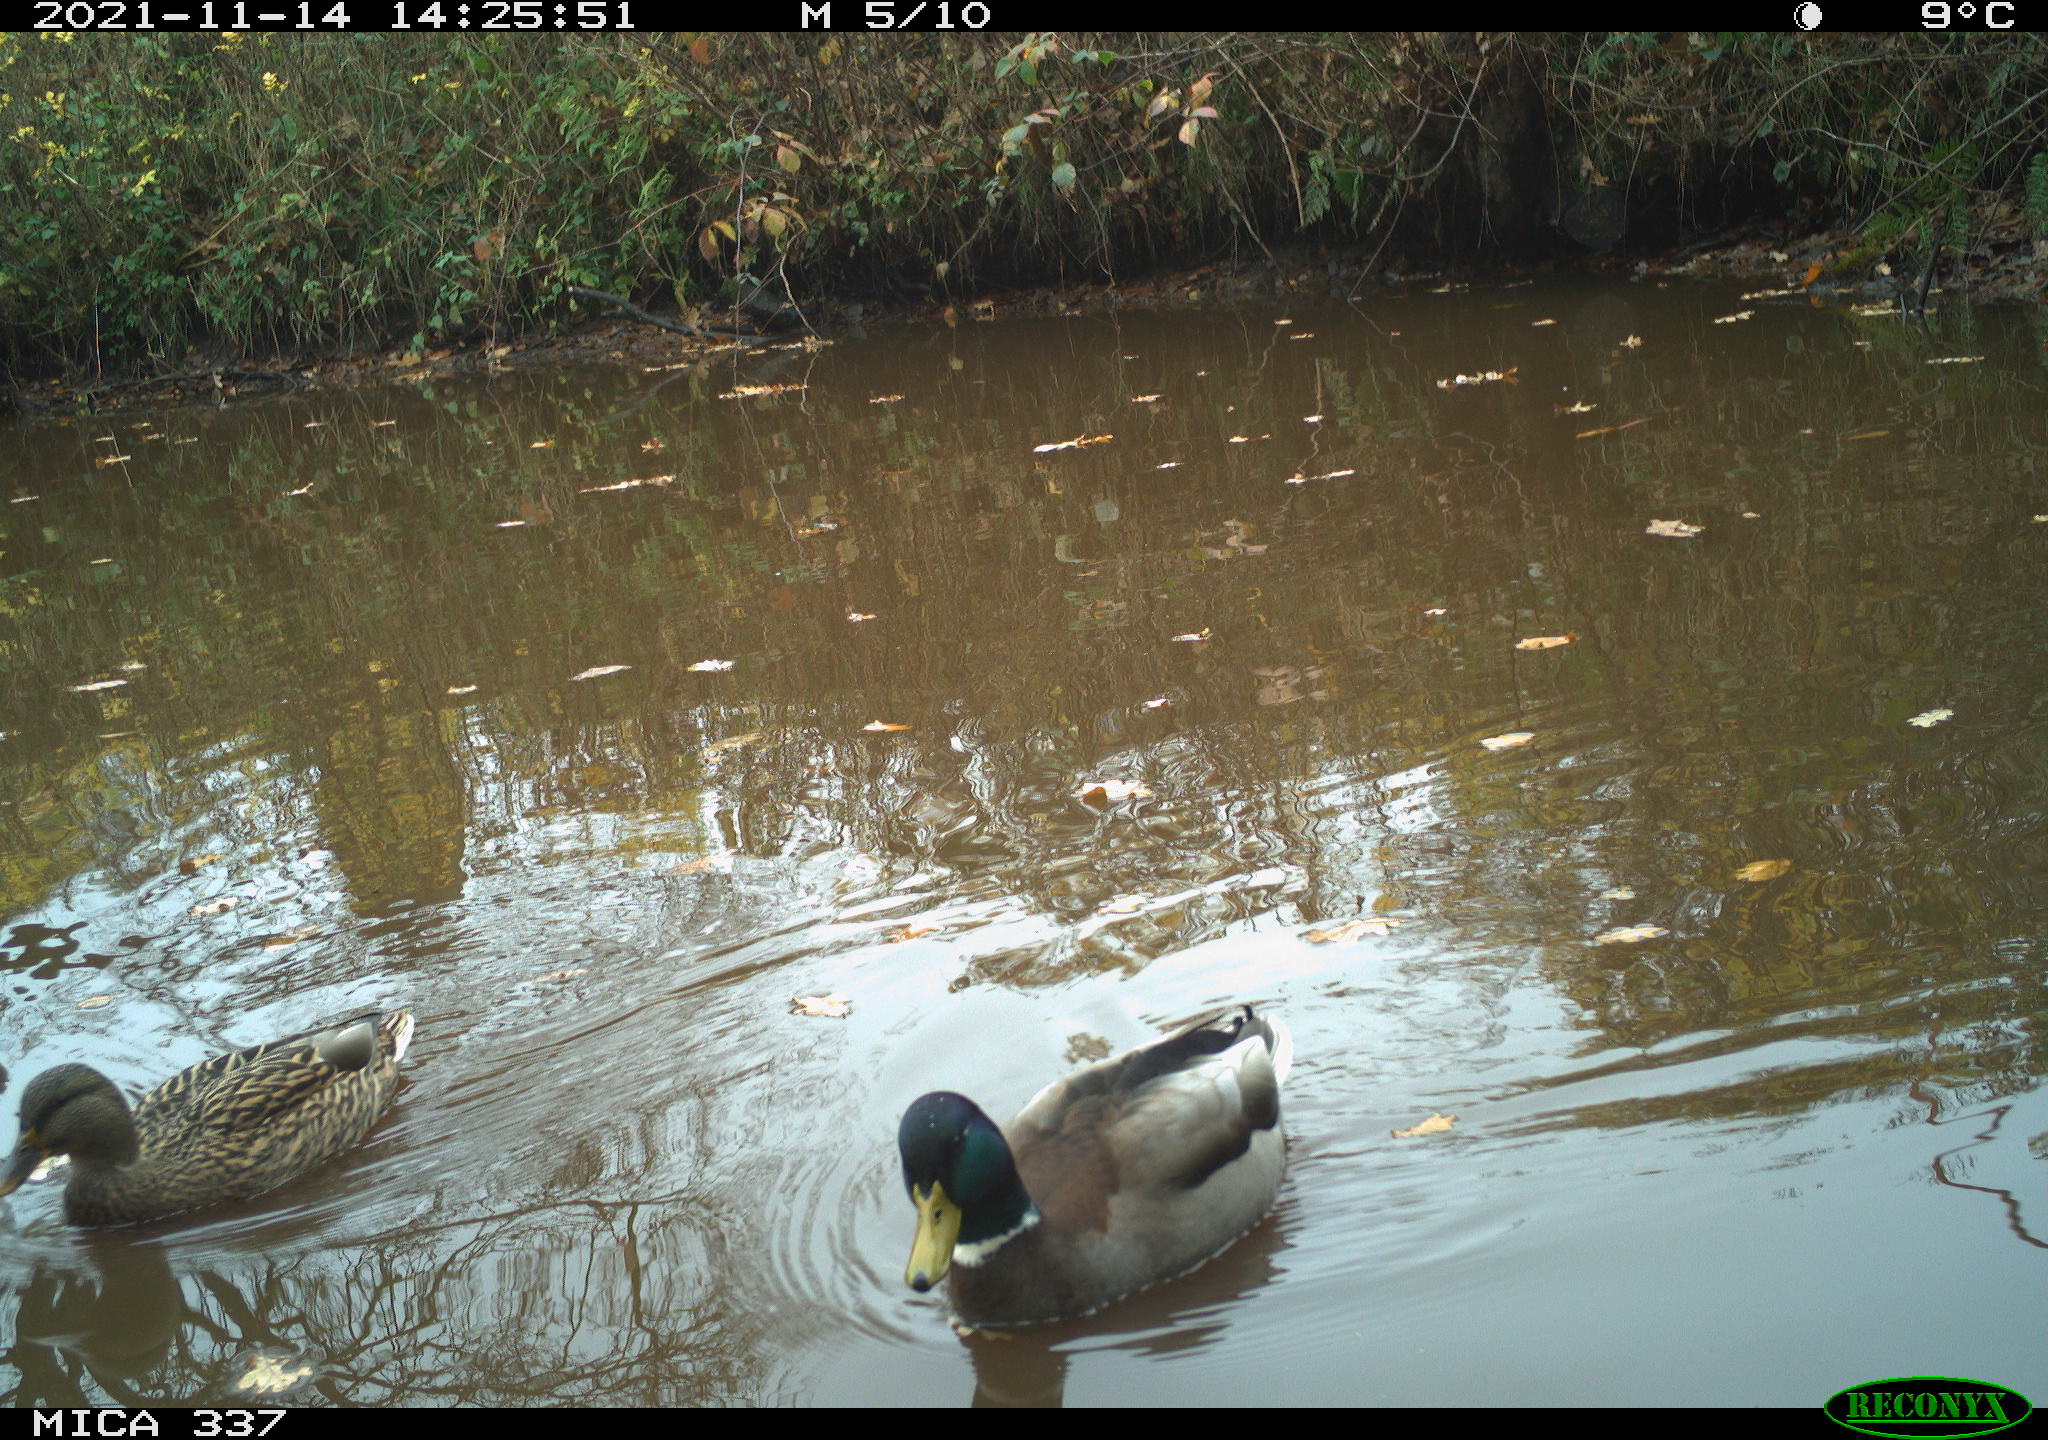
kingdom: Animalia
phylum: Chordata
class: Aves
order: Anseriformes
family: Anatidae
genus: Anas
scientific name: Anas platyrhynchos
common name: Mallard
